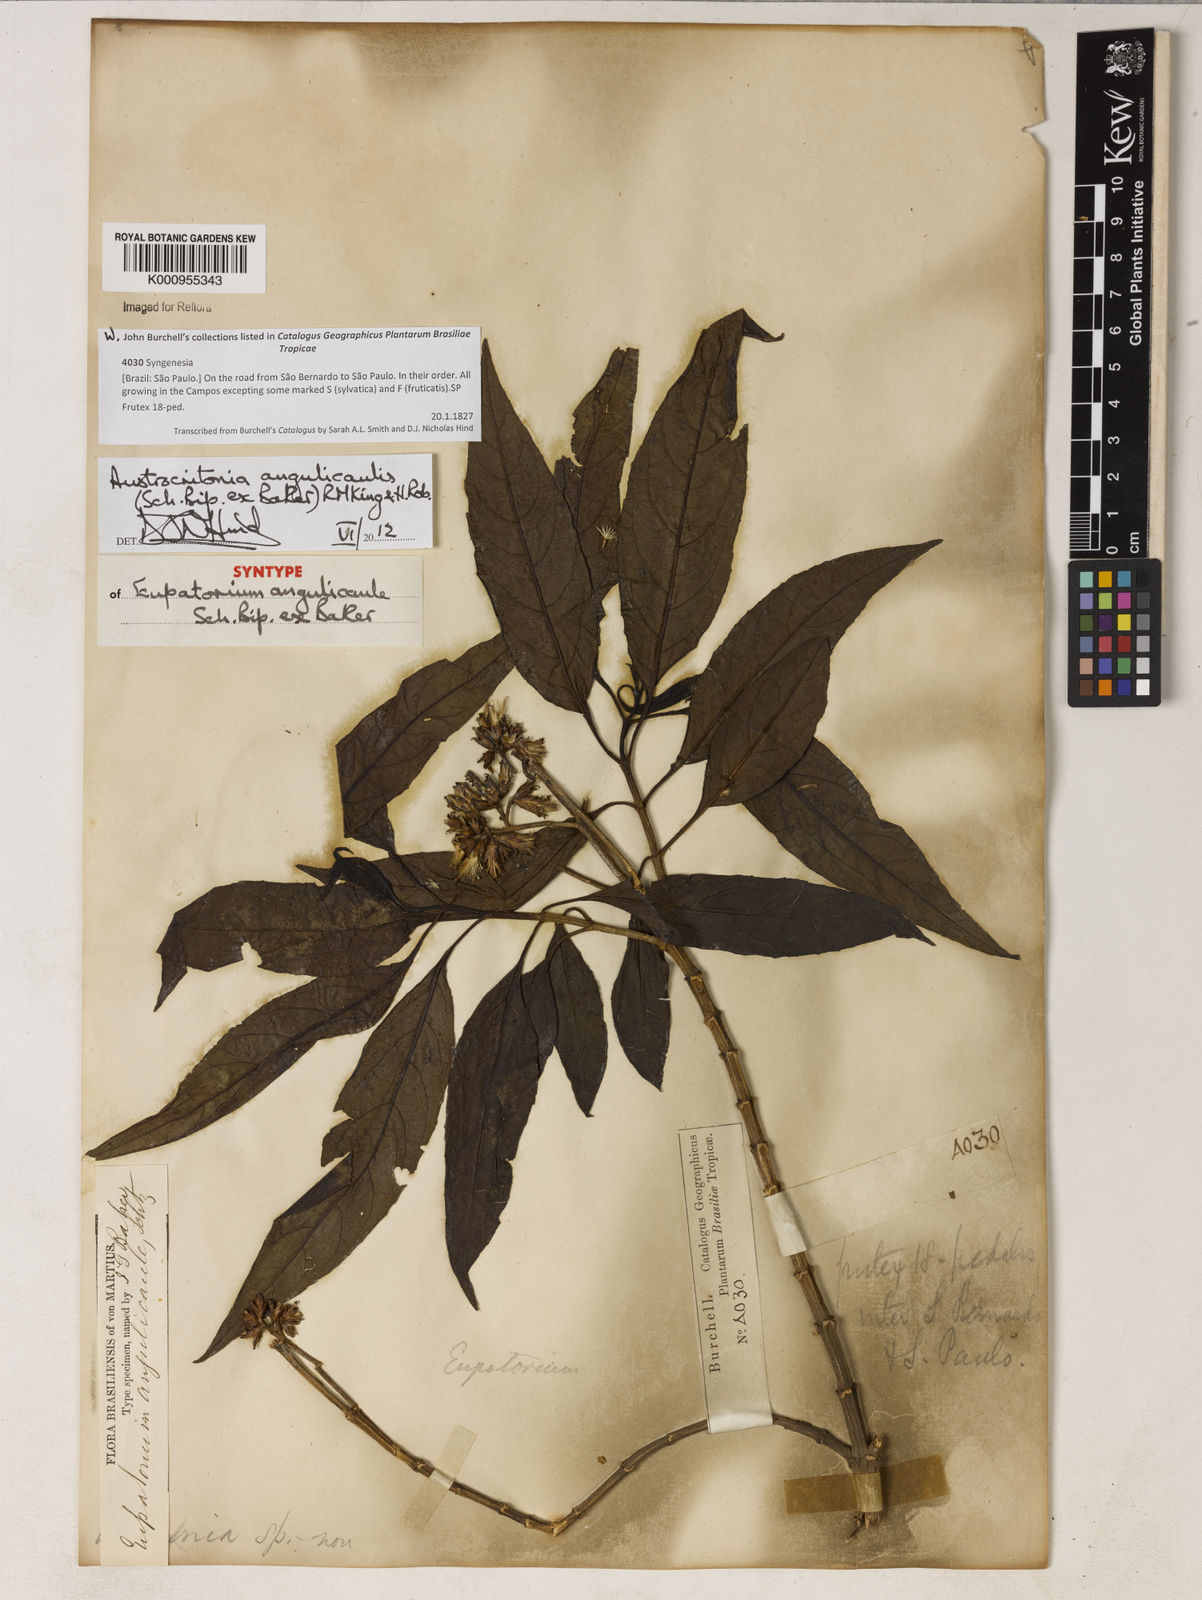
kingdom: Plantae
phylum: Tracheophyta
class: Magnoliopsida
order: Asterales
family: Asteraceae
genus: Austrocritonia
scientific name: Austrocritonia angulicaulis
